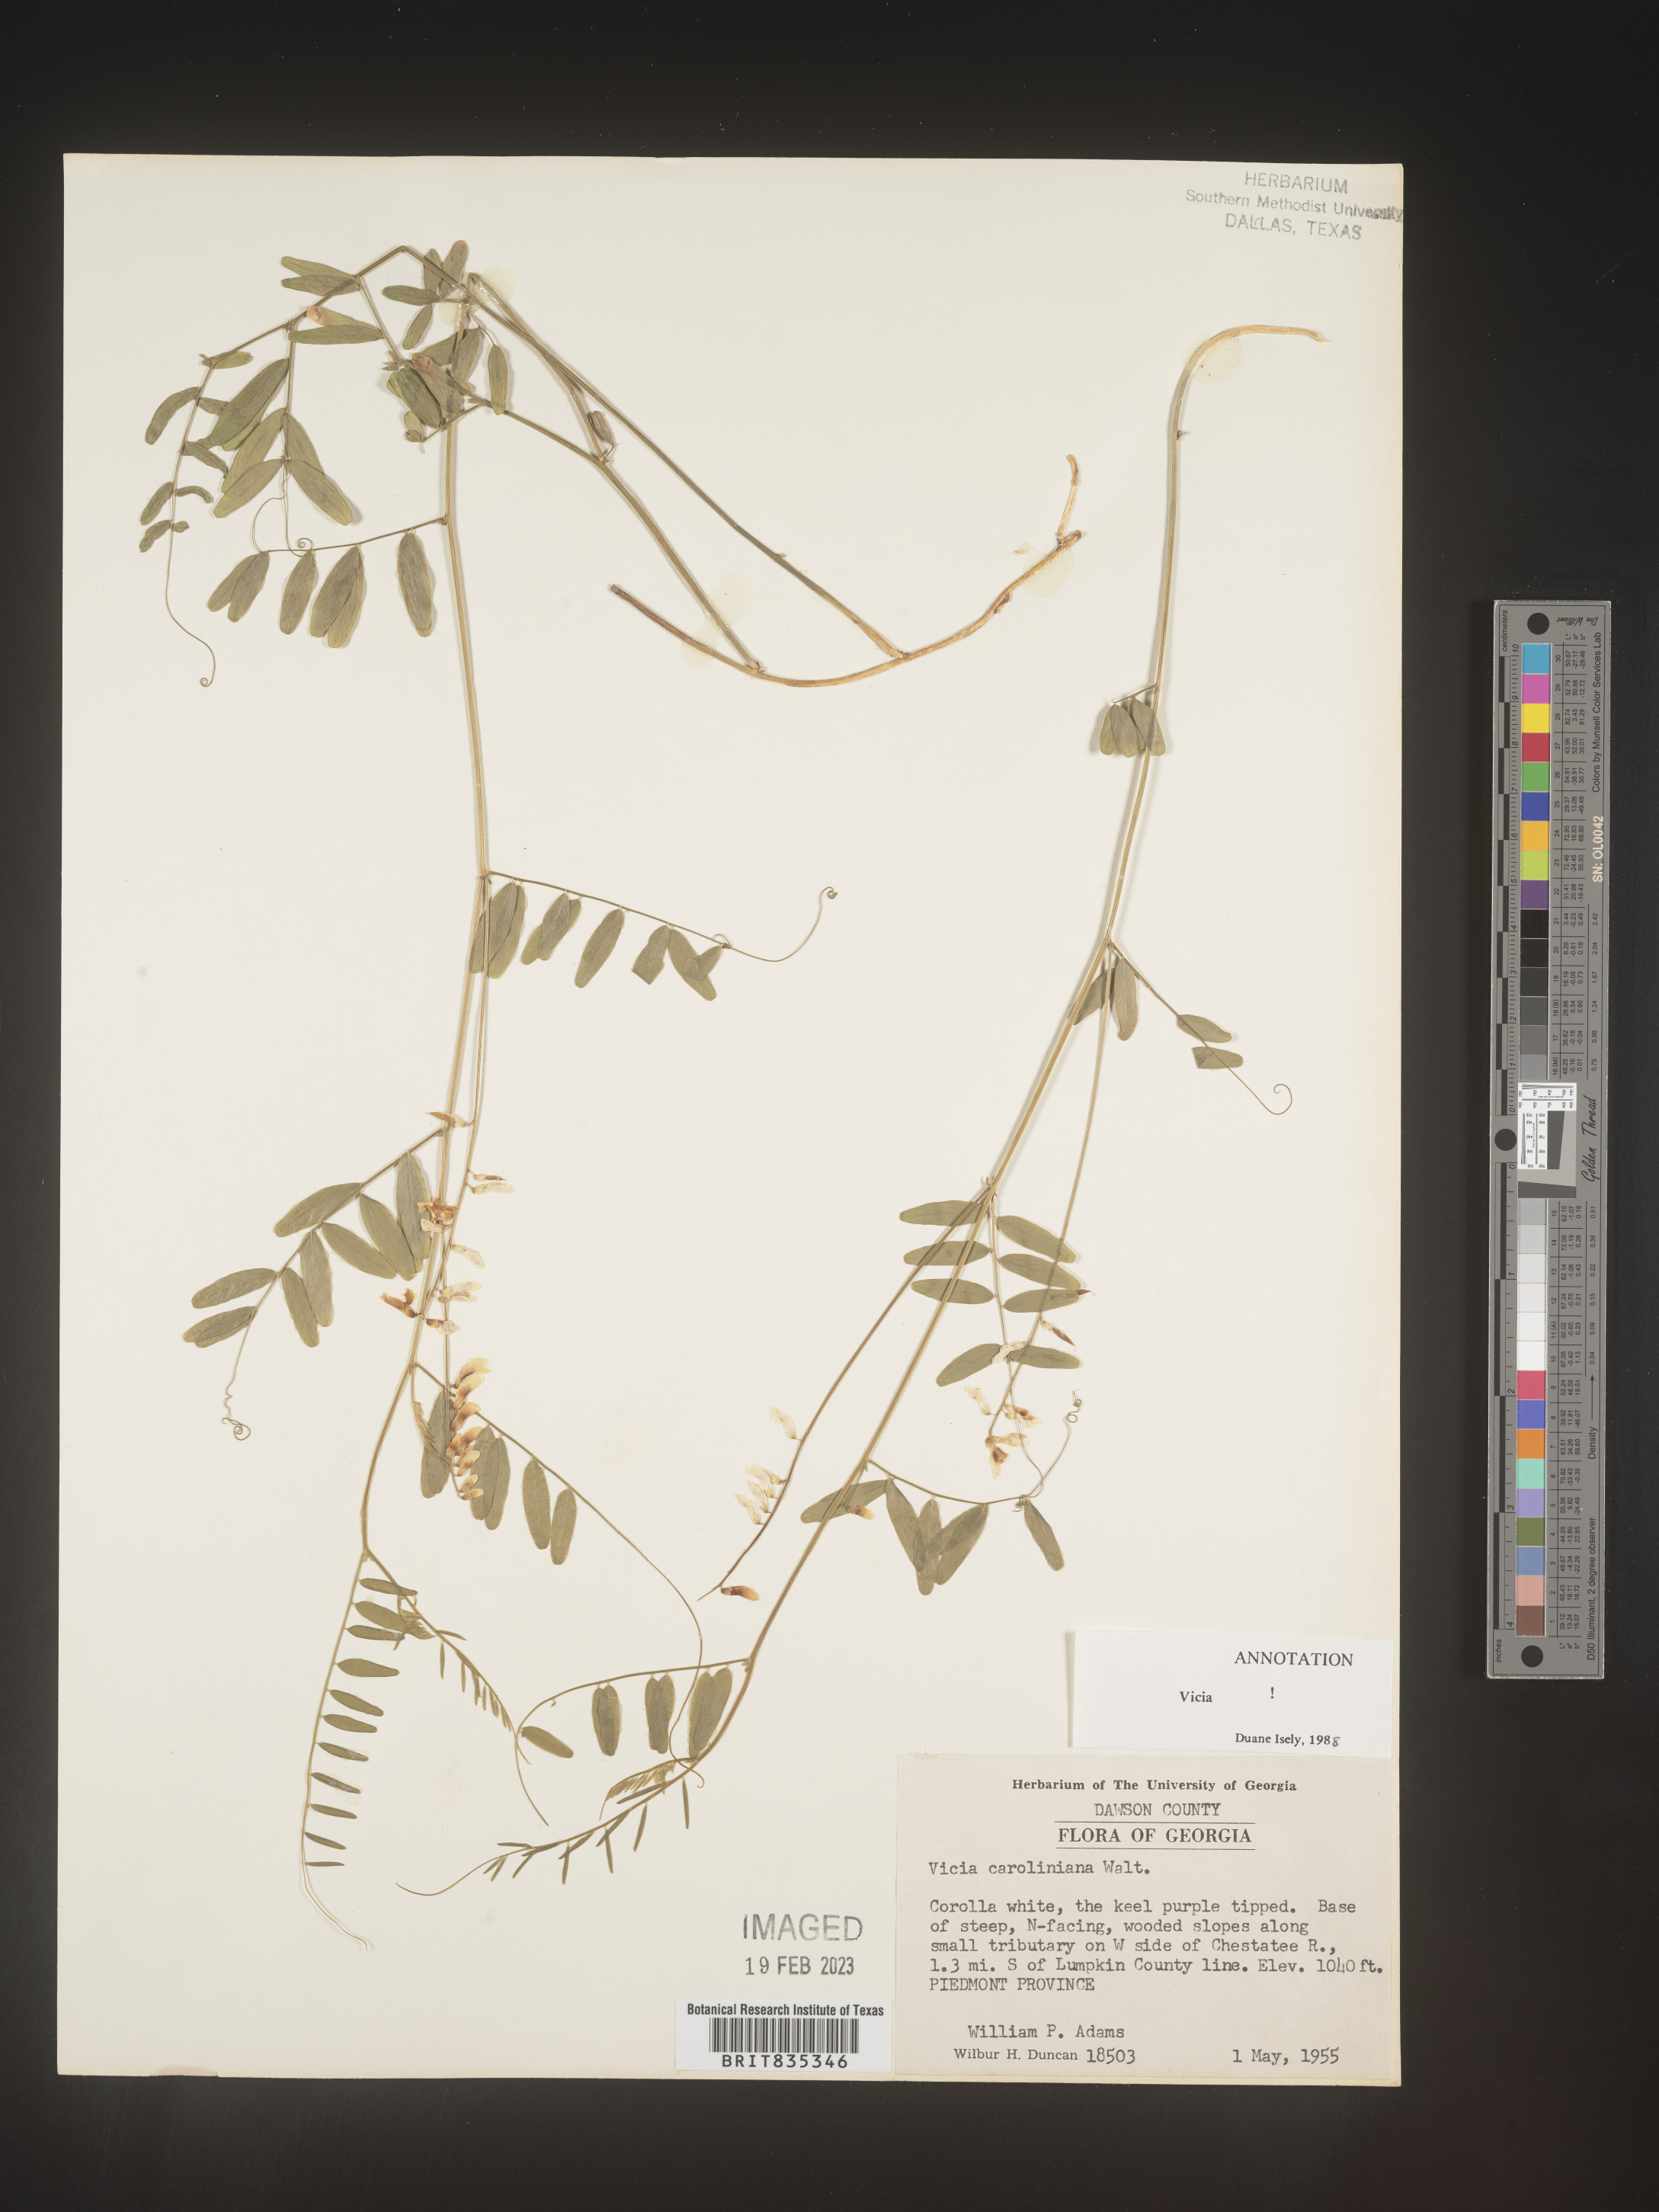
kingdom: Plantae
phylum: Tracheophyta
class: Magnoliopsida
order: Fabales
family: Fabaceae
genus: Vicia
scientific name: Vicia caroliniana
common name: Carolina vetch
